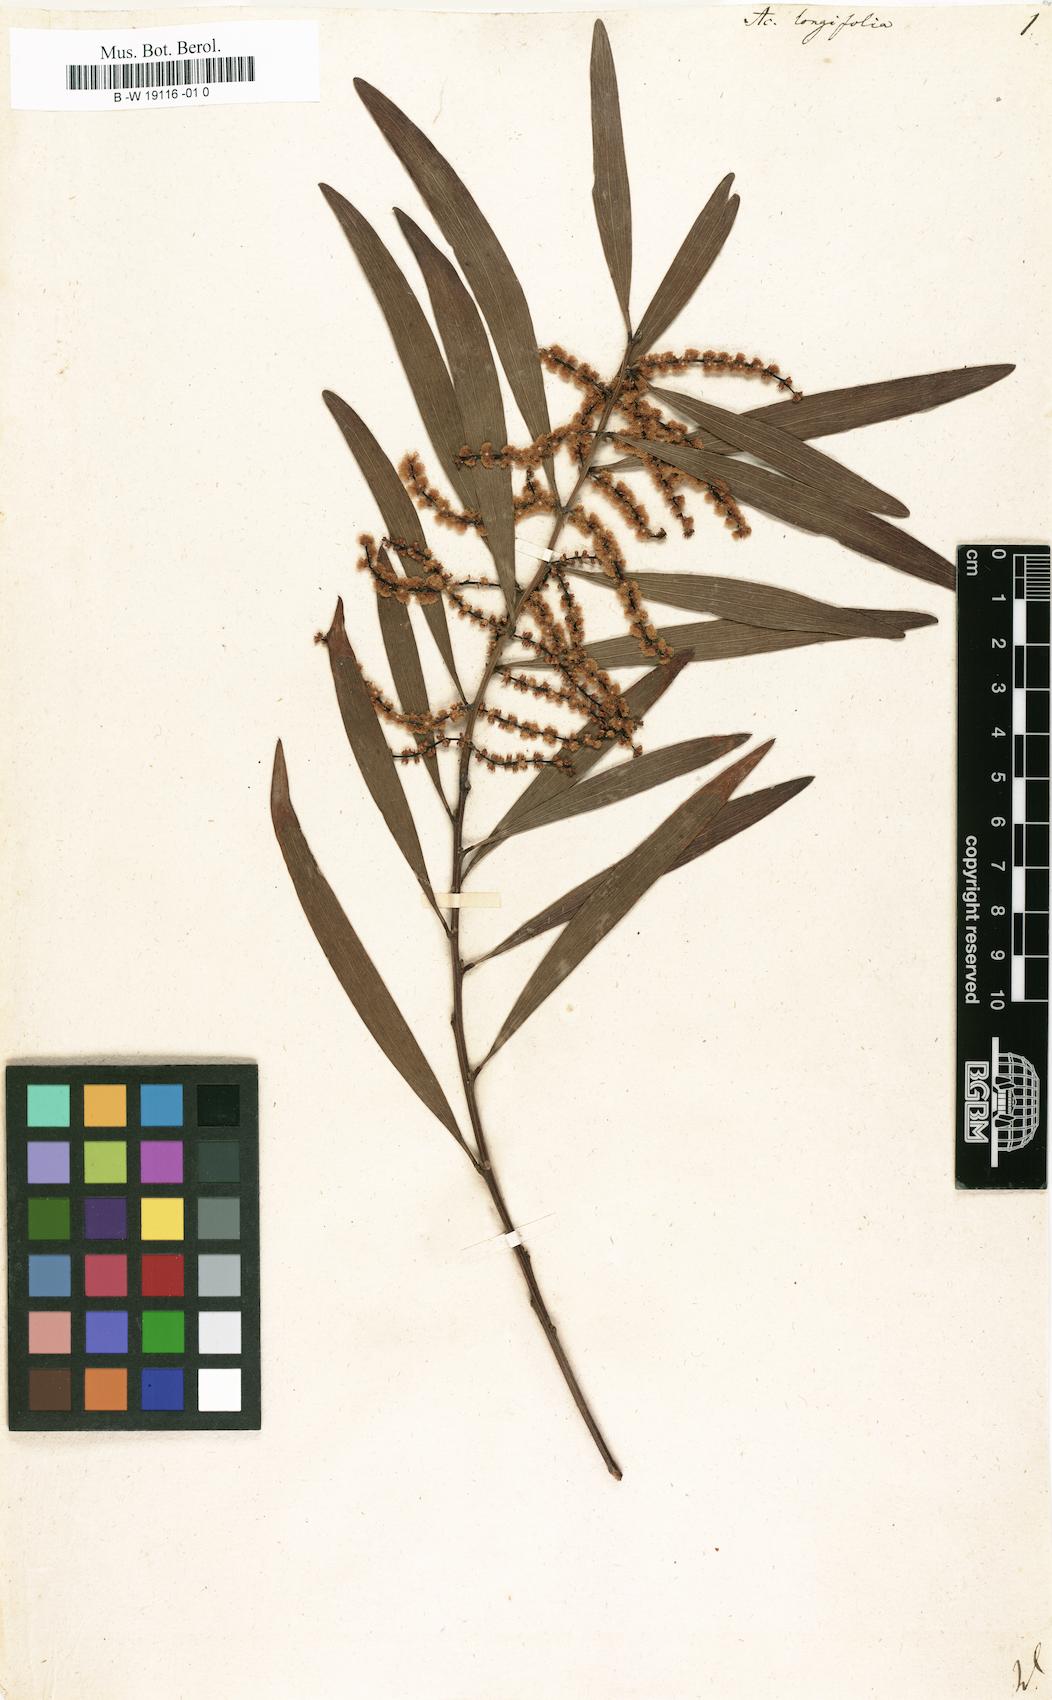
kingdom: Plantae
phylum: Tracheophyta
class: Magnoliopsida
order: Fabales
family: Fabaceae
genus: Acacia
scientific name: Acacia longifolia
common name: Sydney golden wattle
